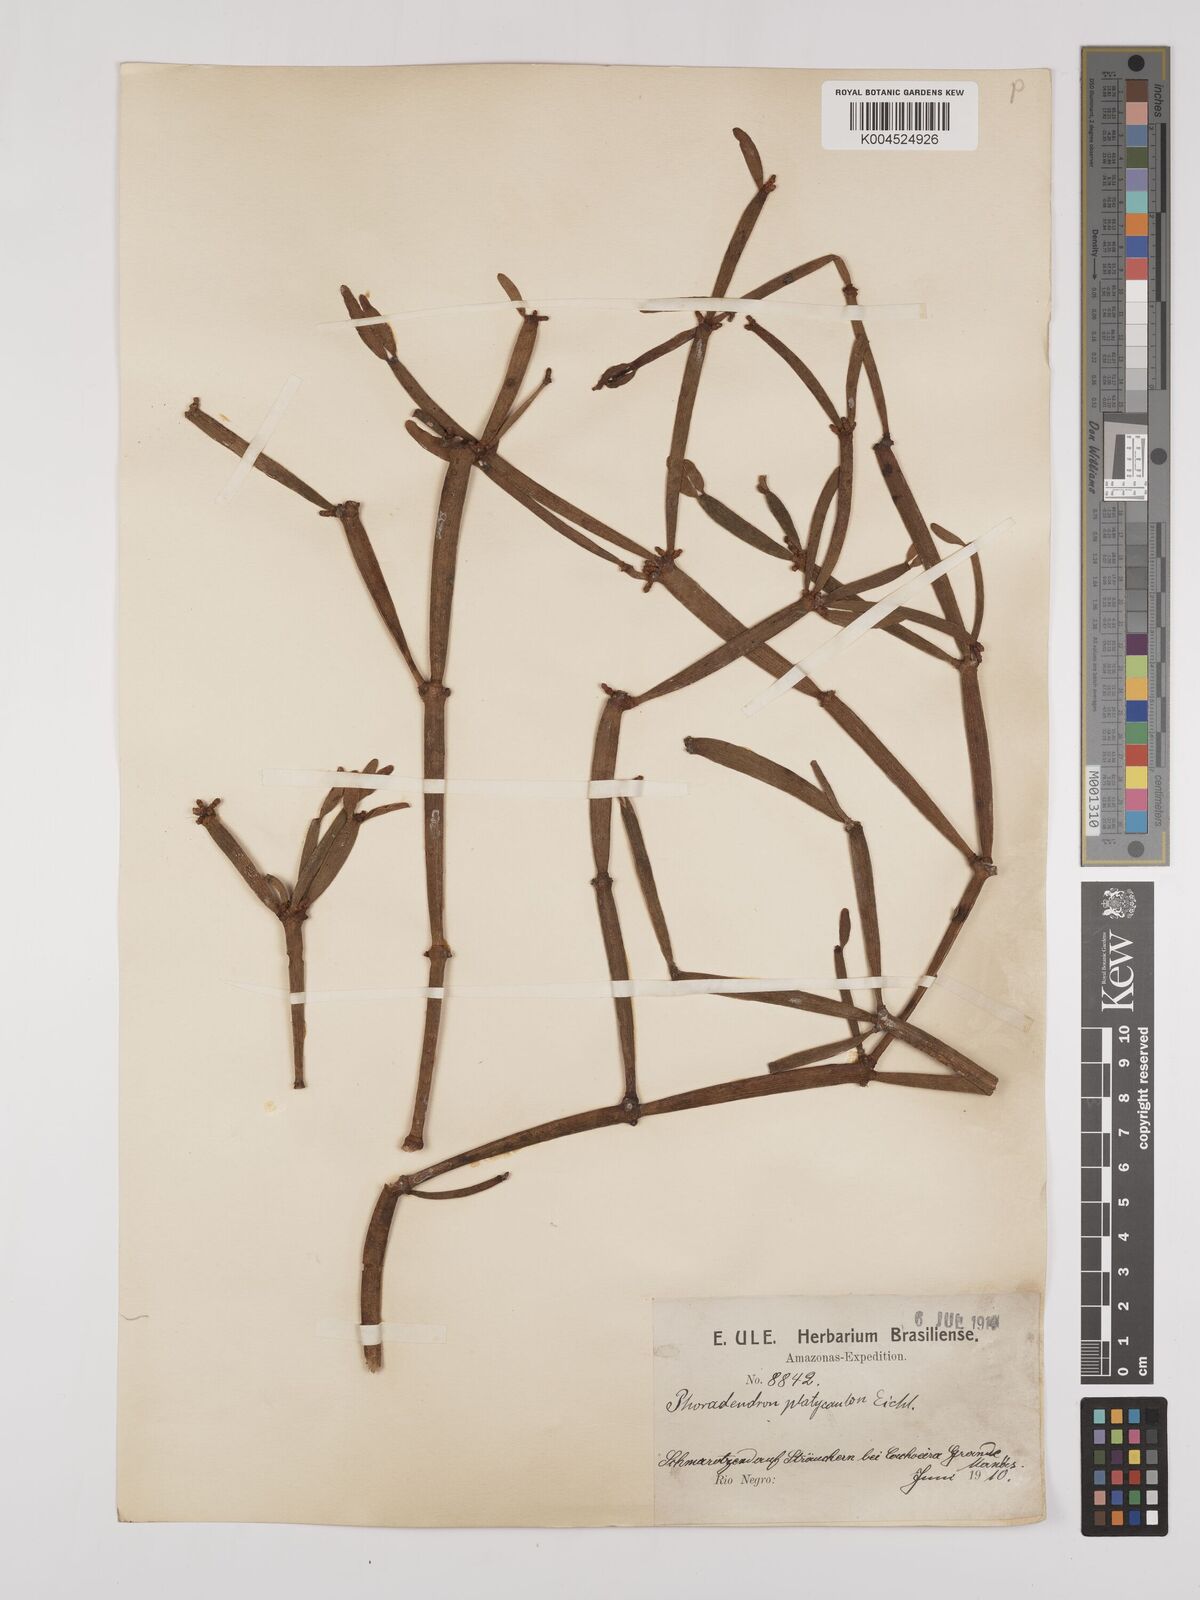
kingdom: Plantae
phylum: Tracheophyta
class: Magnoliopsida
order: Santalales
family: Viscaceae
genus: Phoradendron
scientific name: Phoradendron planiphyllum
